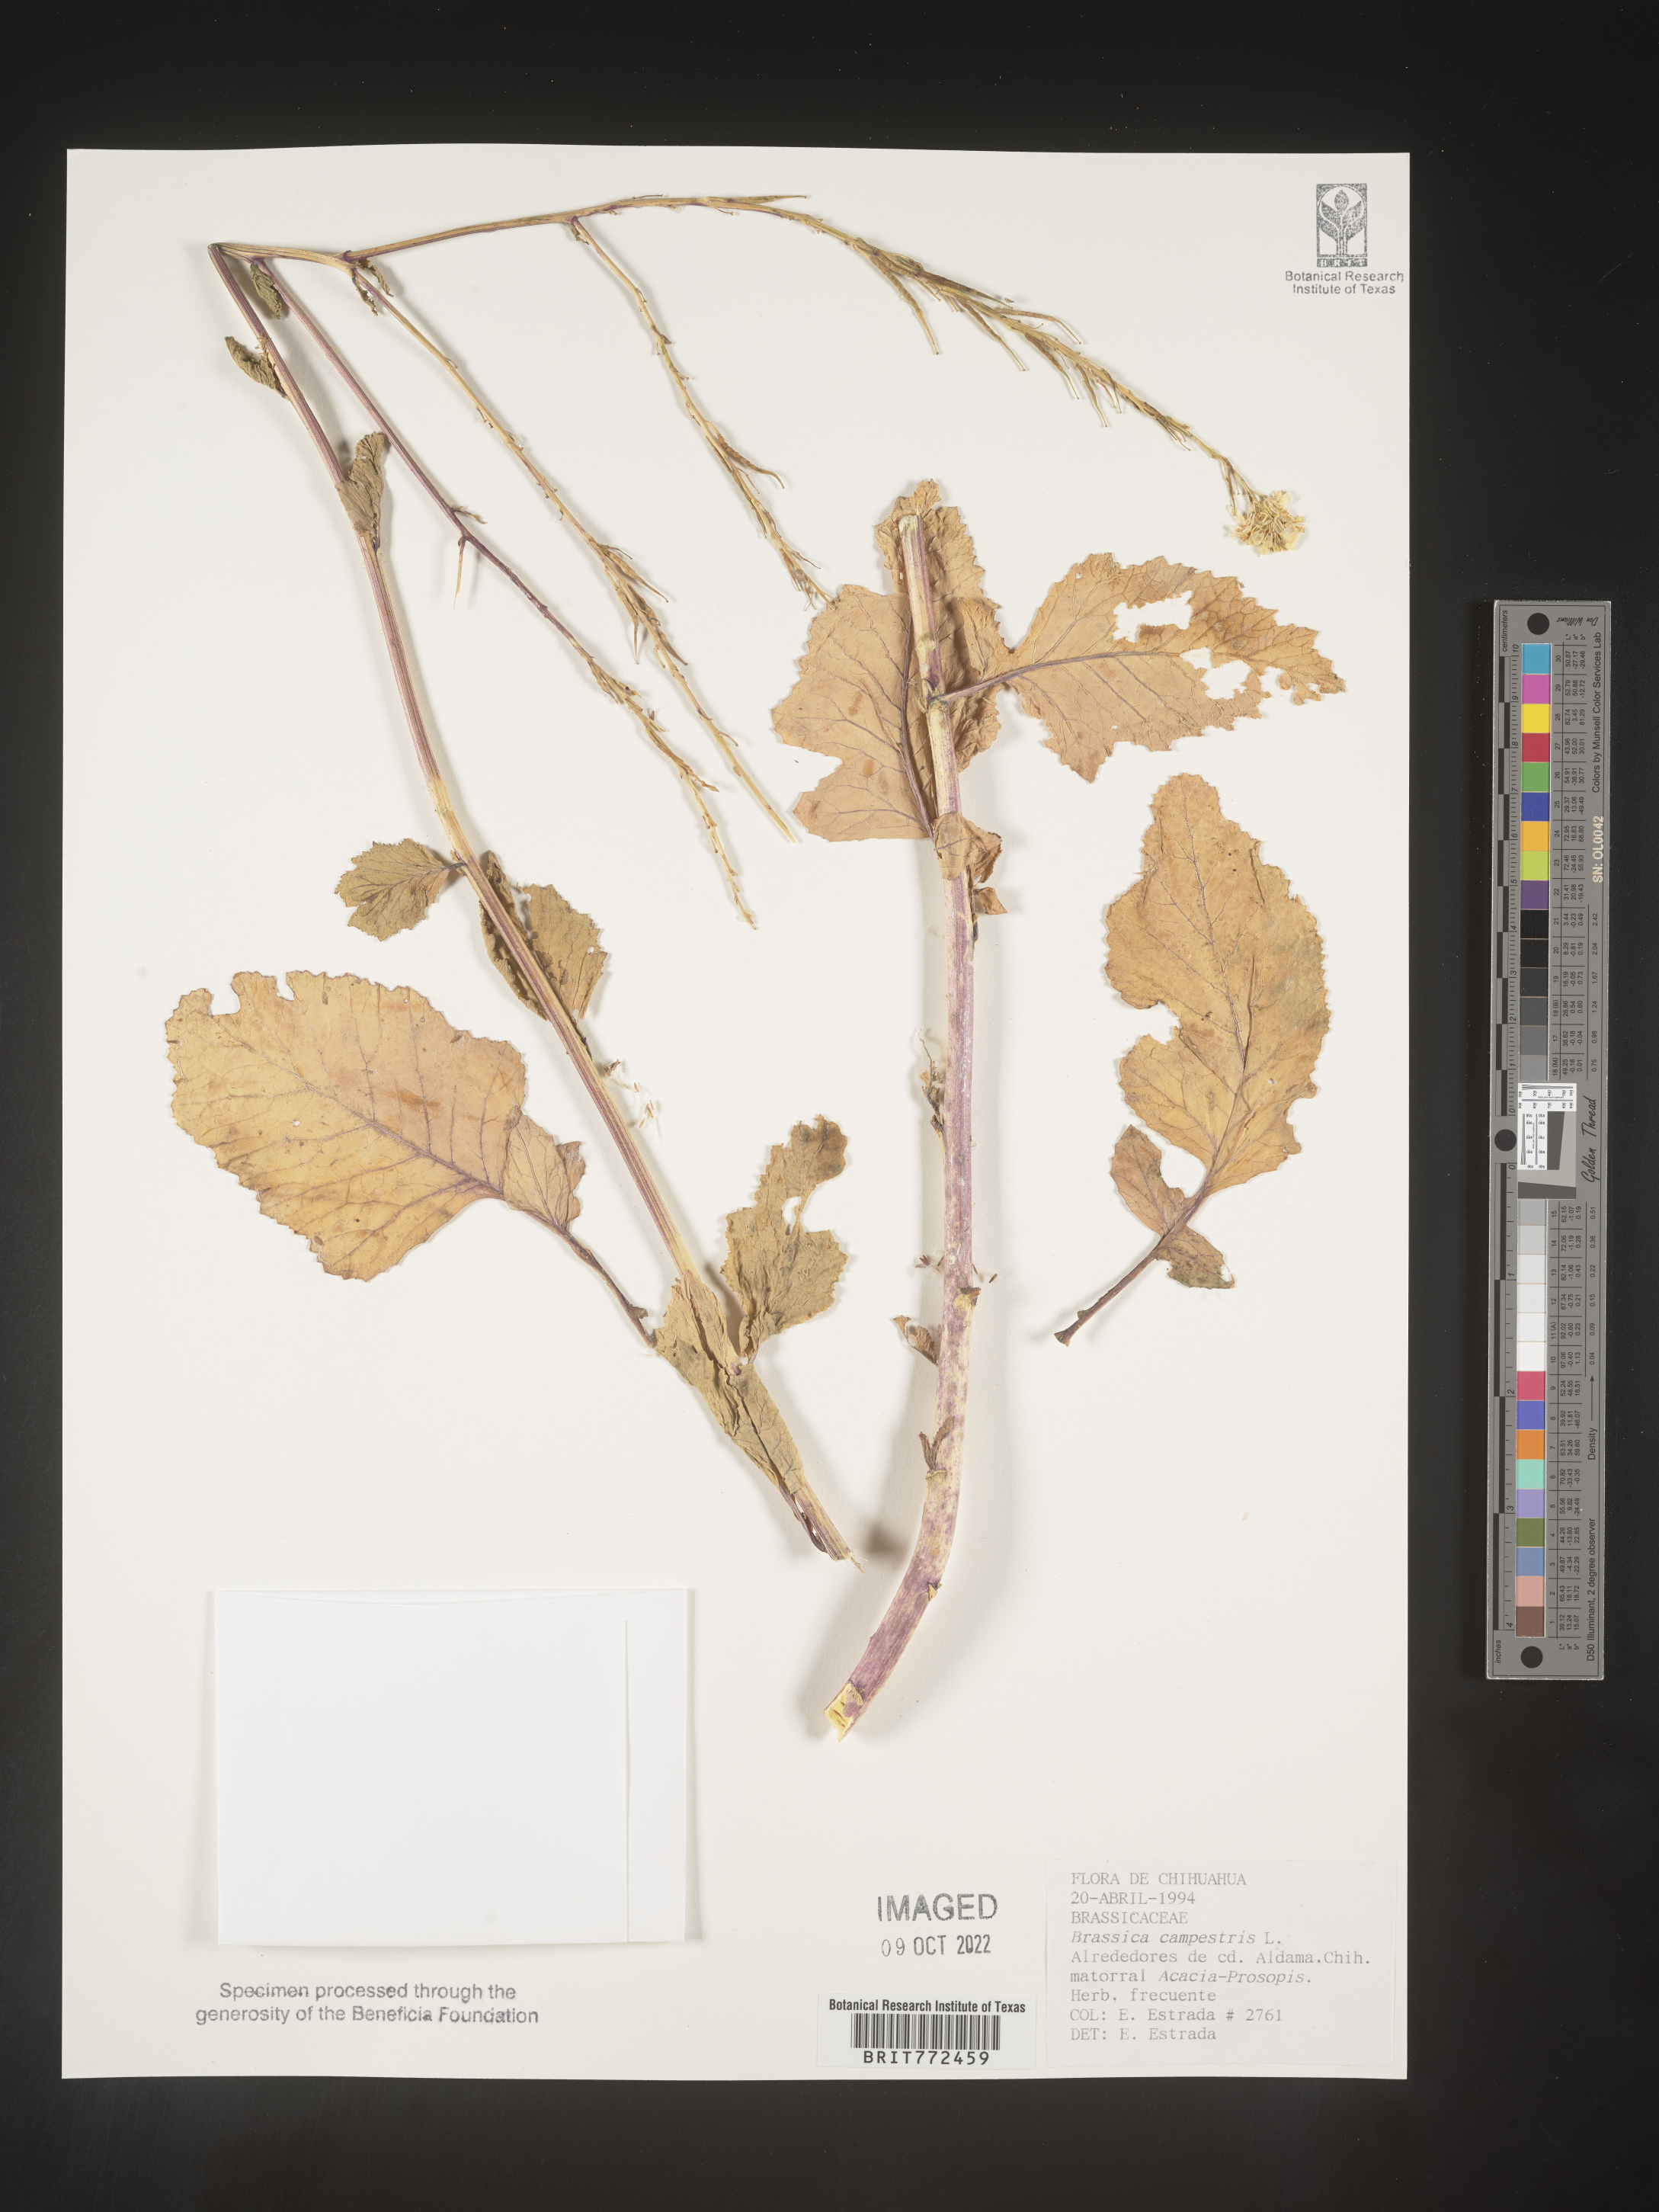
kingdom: Plantae
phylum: Tracheophyta
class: Magnoliopsida
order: Brassicales
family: Brassicaceae
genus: Brassica
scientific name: Brassica
